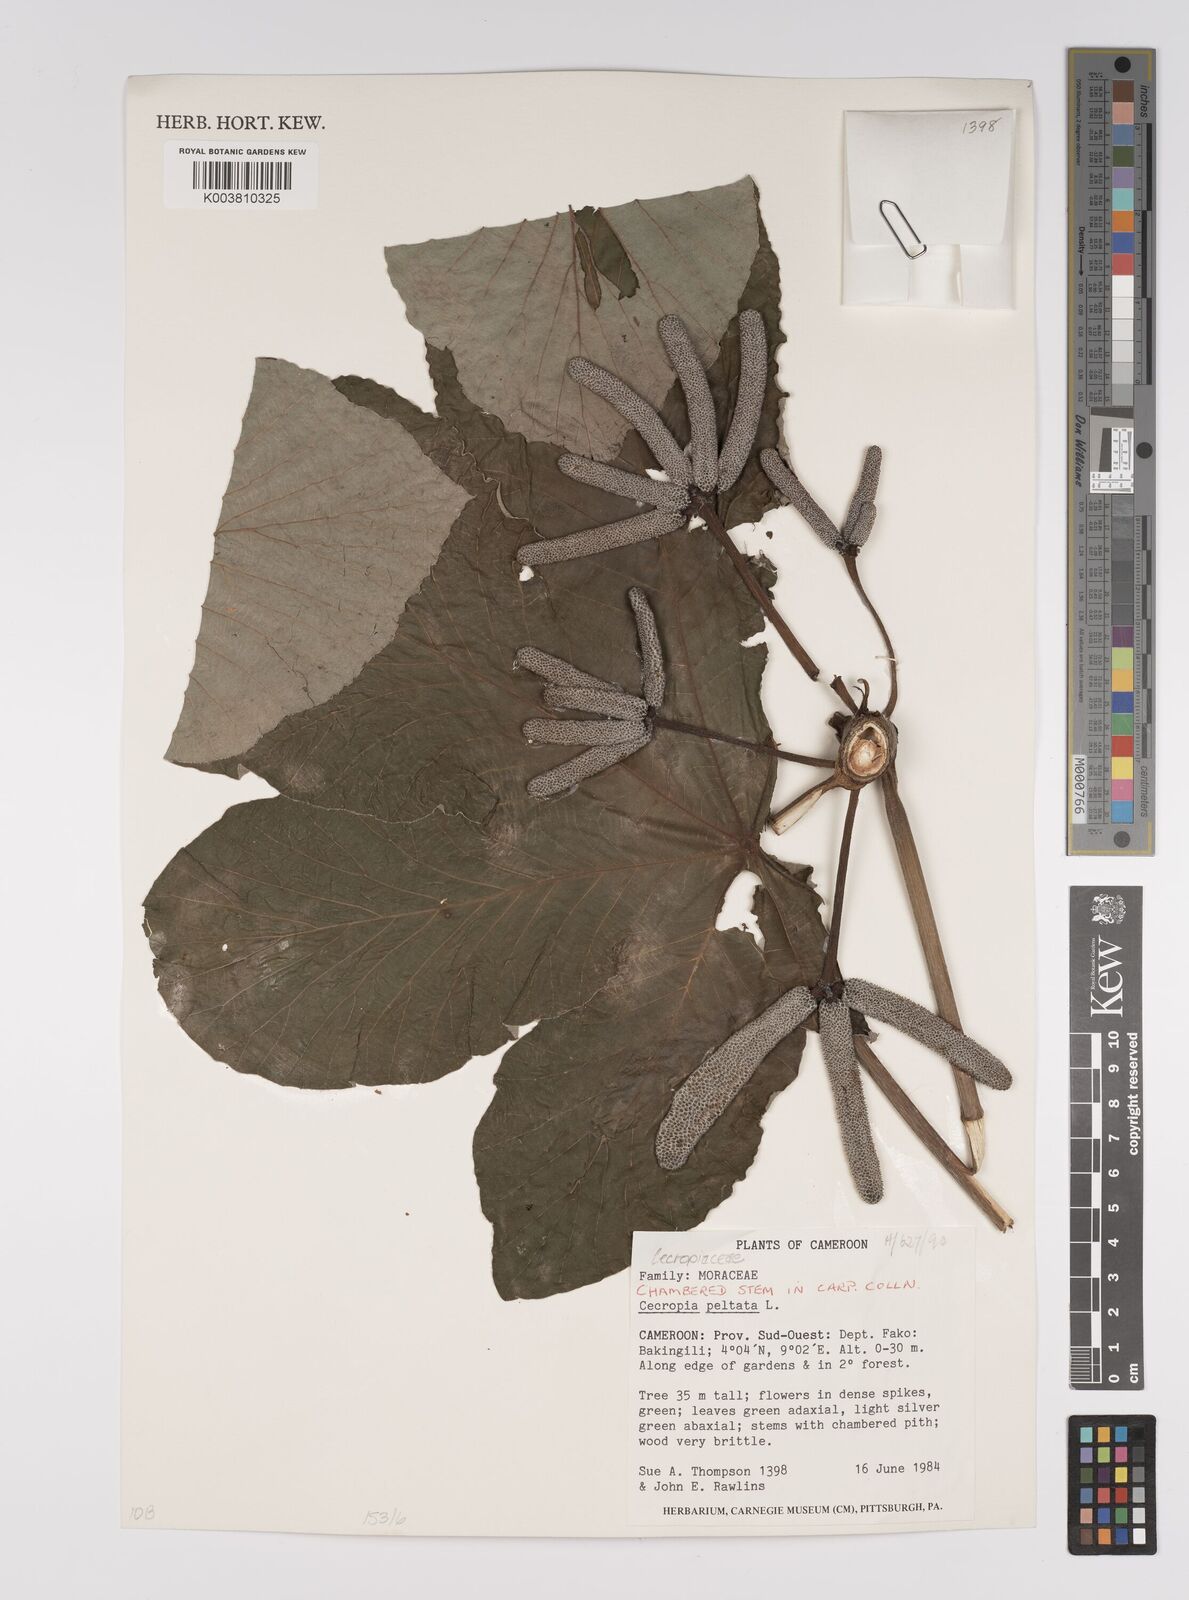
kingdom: Plantae
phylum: Tracheophyta
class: Magnoliopsida
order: Rosales
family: Urticaceae
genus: Cecropia
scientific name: Cecropia peltata
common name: Trumpet-tree
